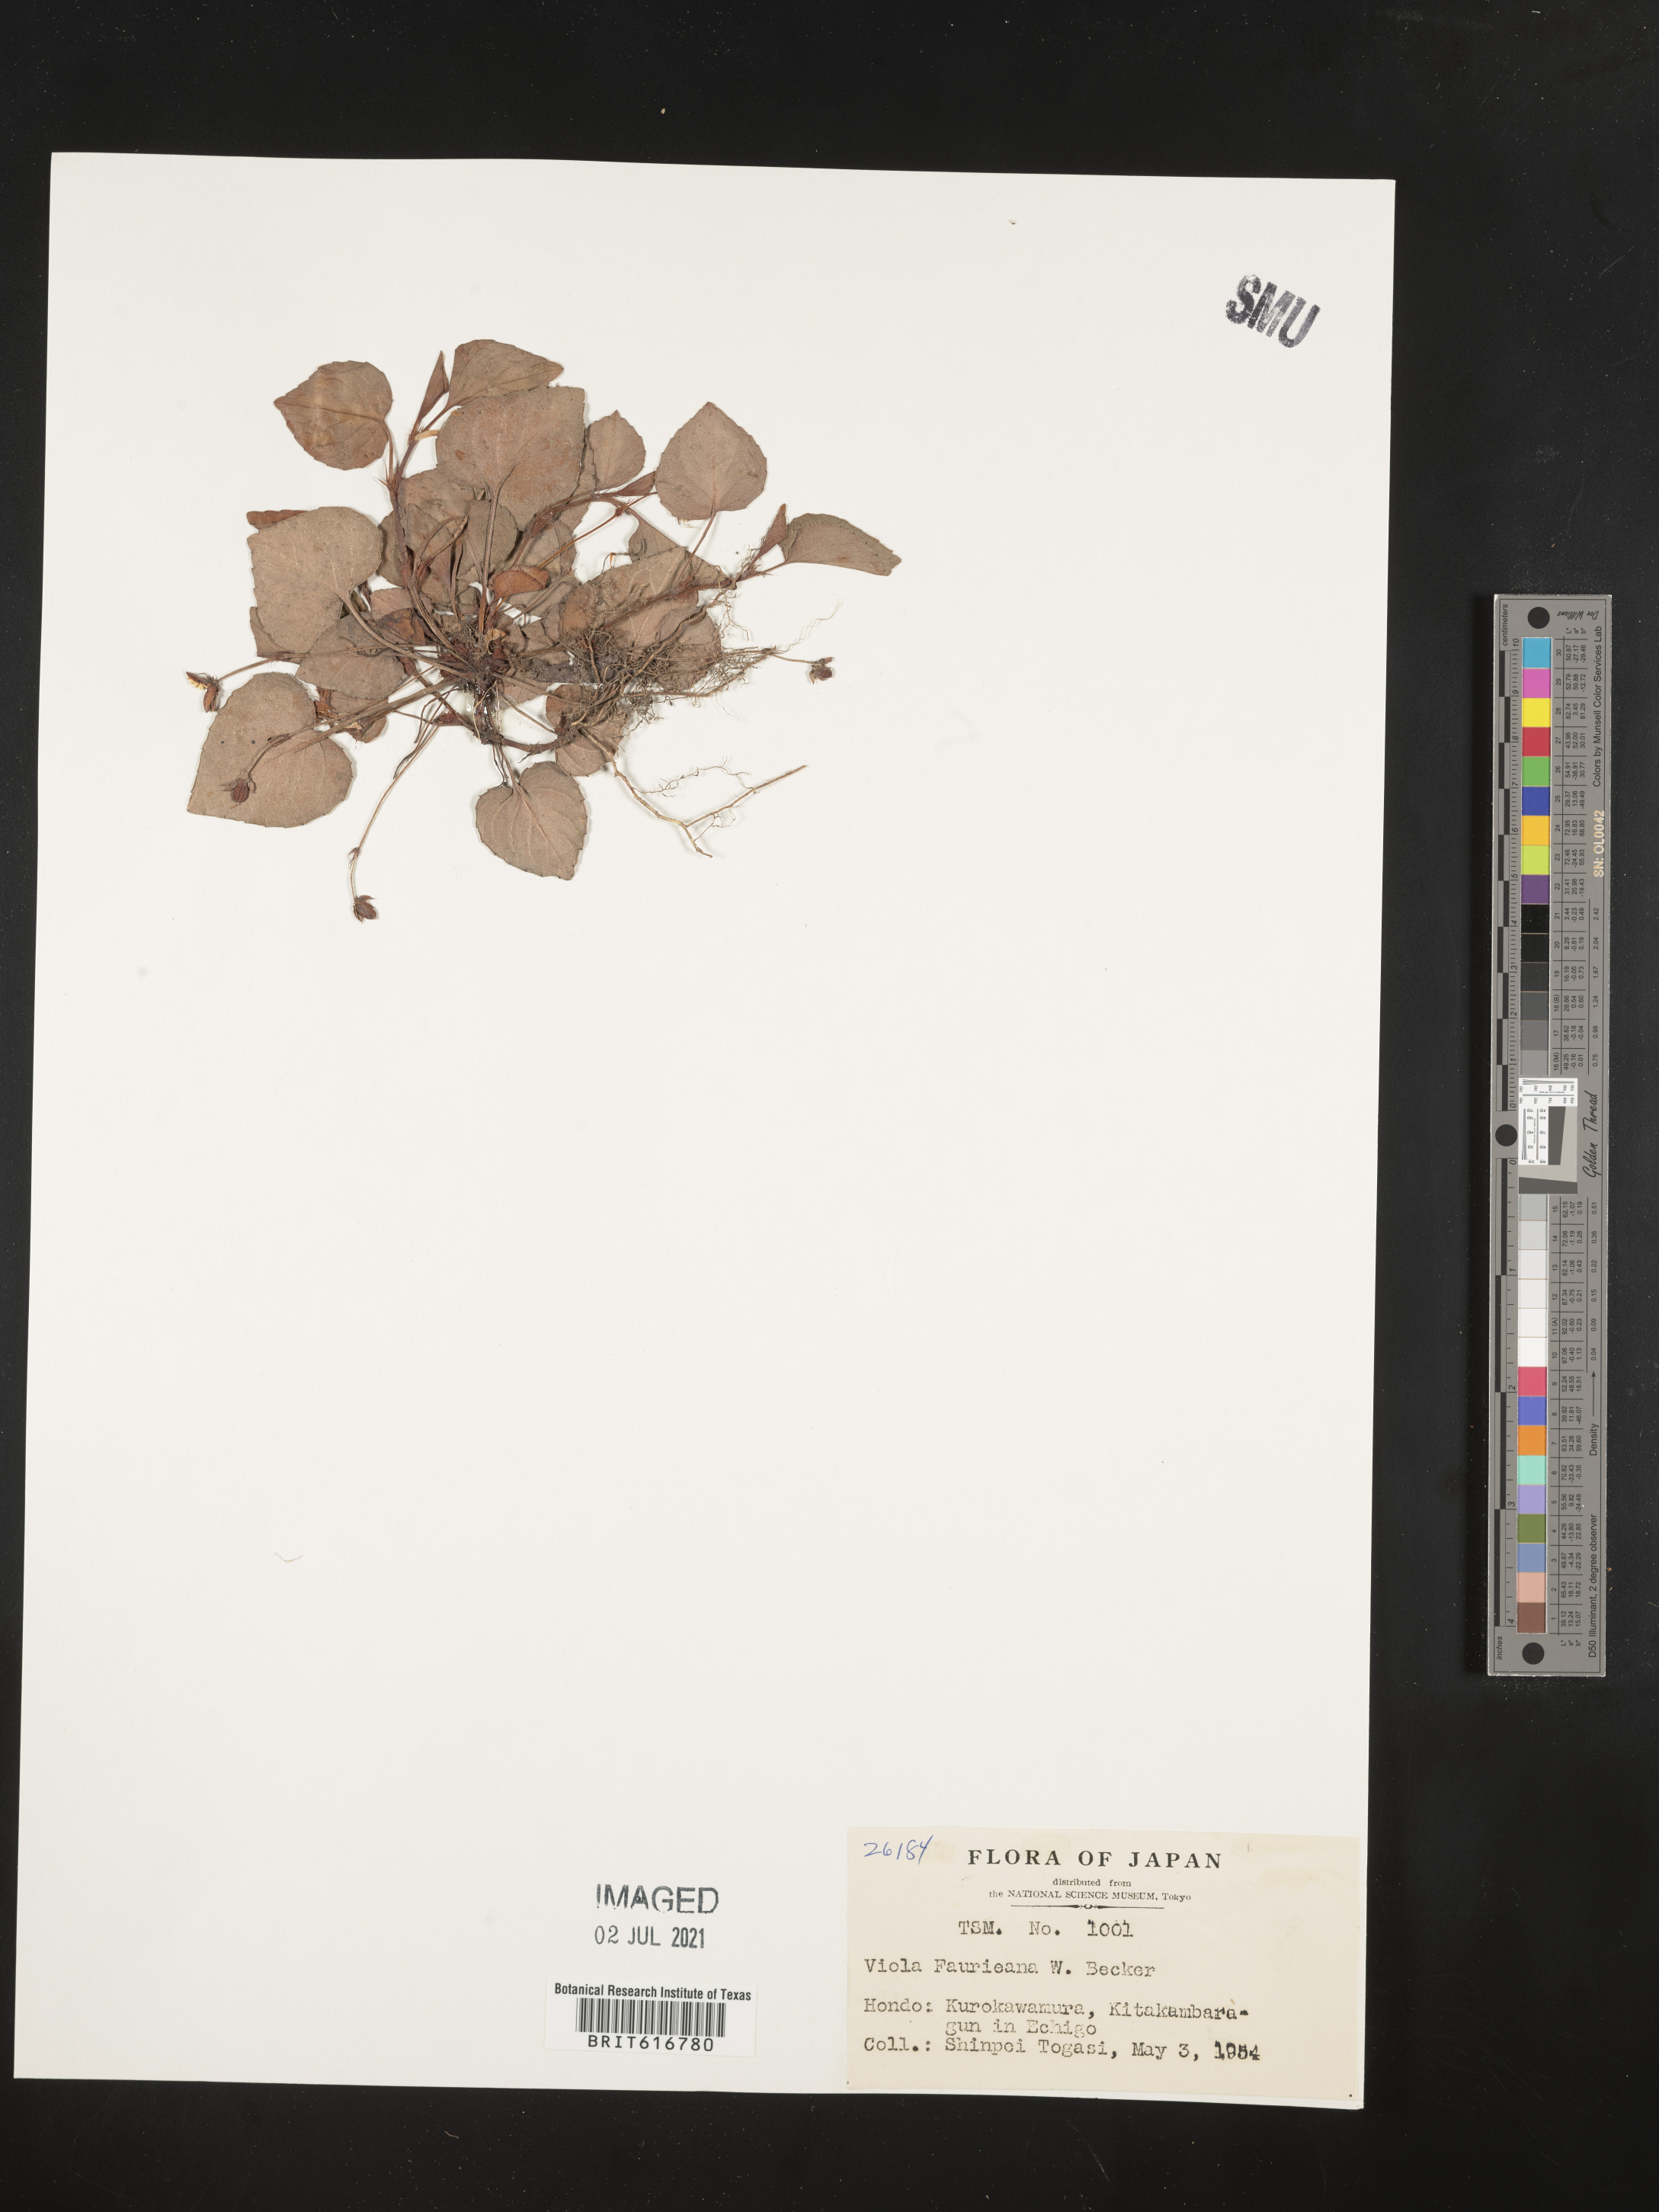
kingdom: Plantae
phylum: Tracheophyta
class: Magnoliopsida
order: Malpighiales
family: Violaceae
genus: Viola
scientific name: Viola faurieana
